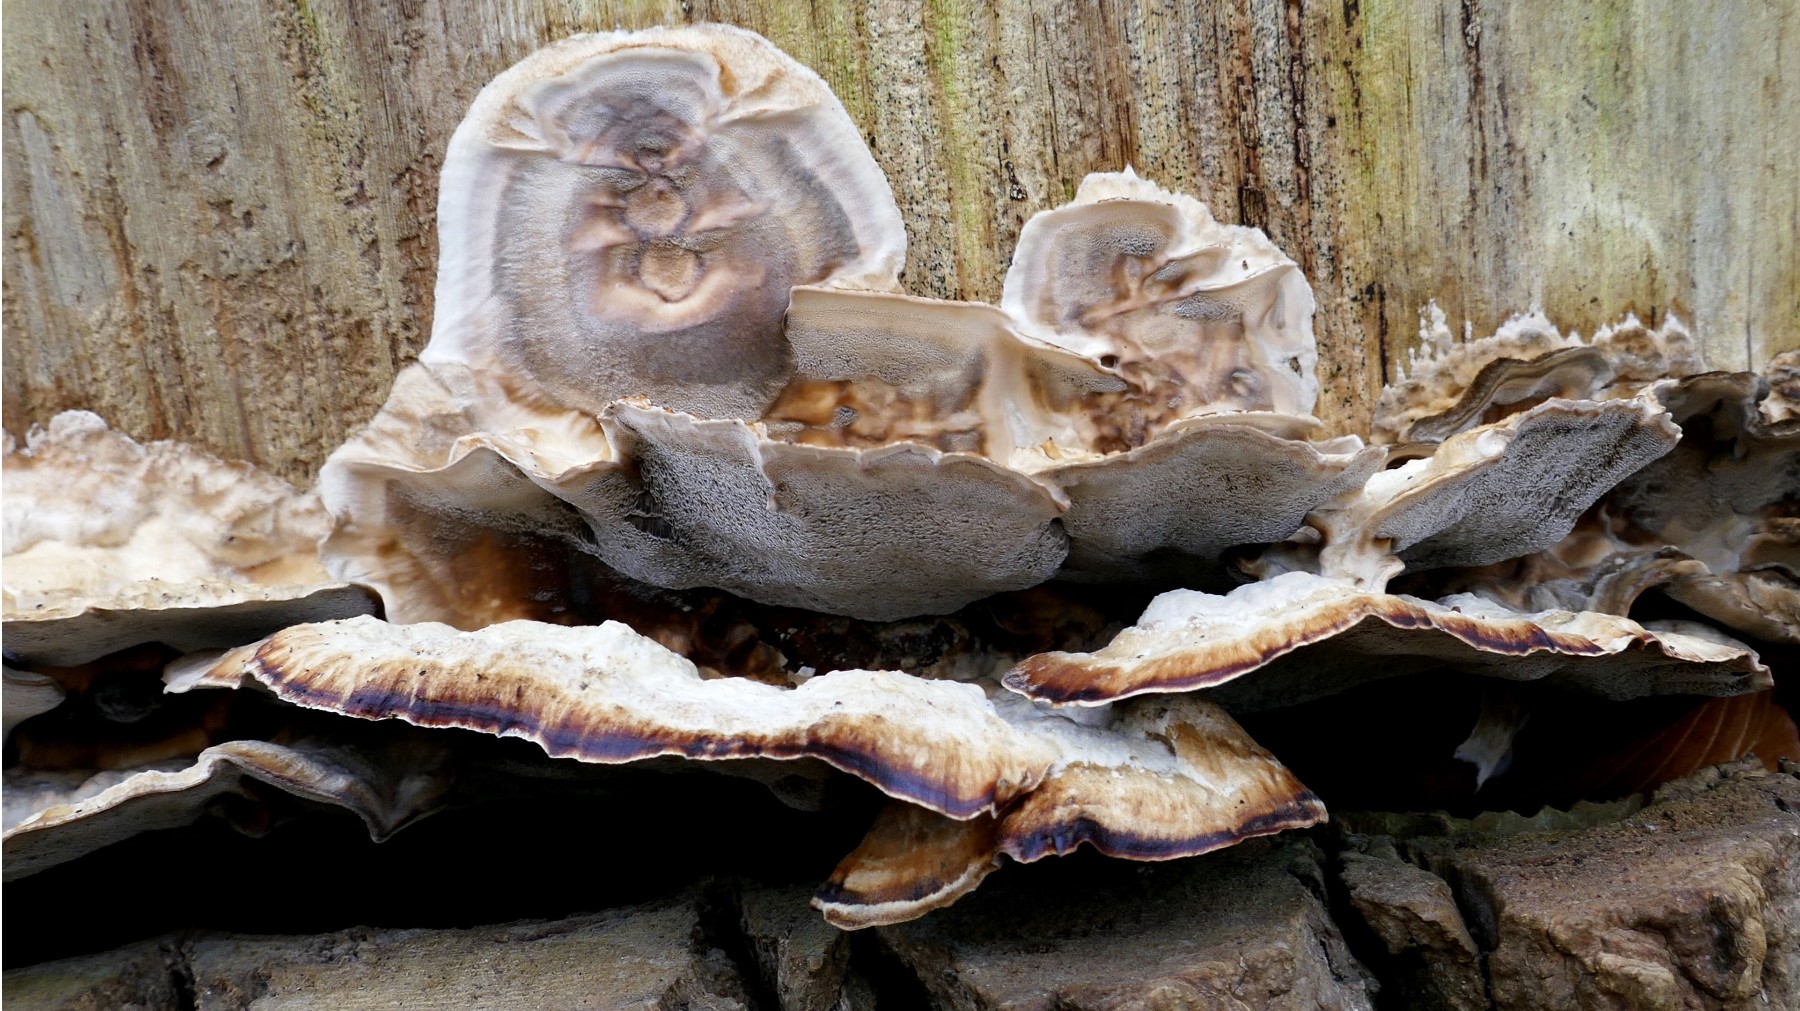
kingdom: Fungi
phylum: Basidiomycota
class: Agaricomycetes
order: Polyporales
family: Phanerochaetaceae
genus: Bjerkandera
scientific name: Bjerkandera adusta
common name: sveden sodporesvamp
